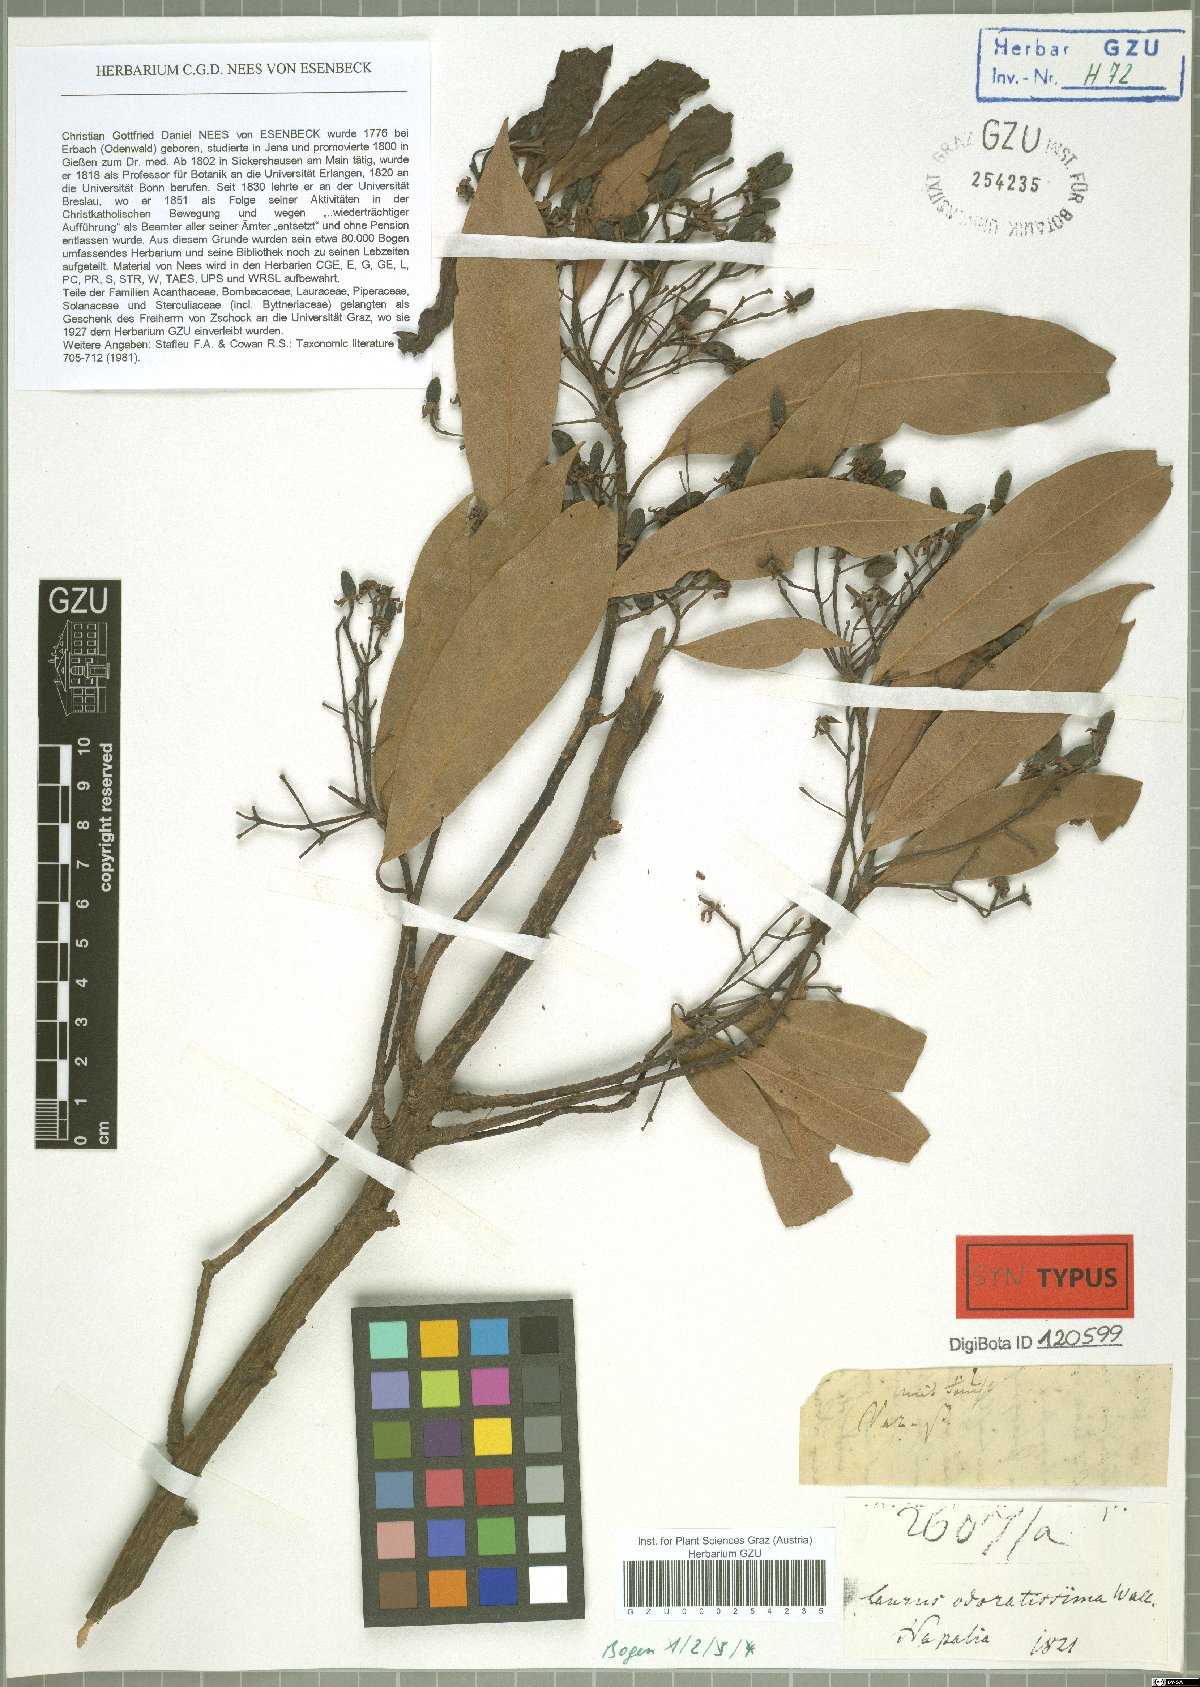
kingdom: Plantae
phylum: Tracheophyta
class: Magnoliopsida
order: Laurales
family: Lauraceae
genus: Machilus
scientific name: Machilus odoratissimus
